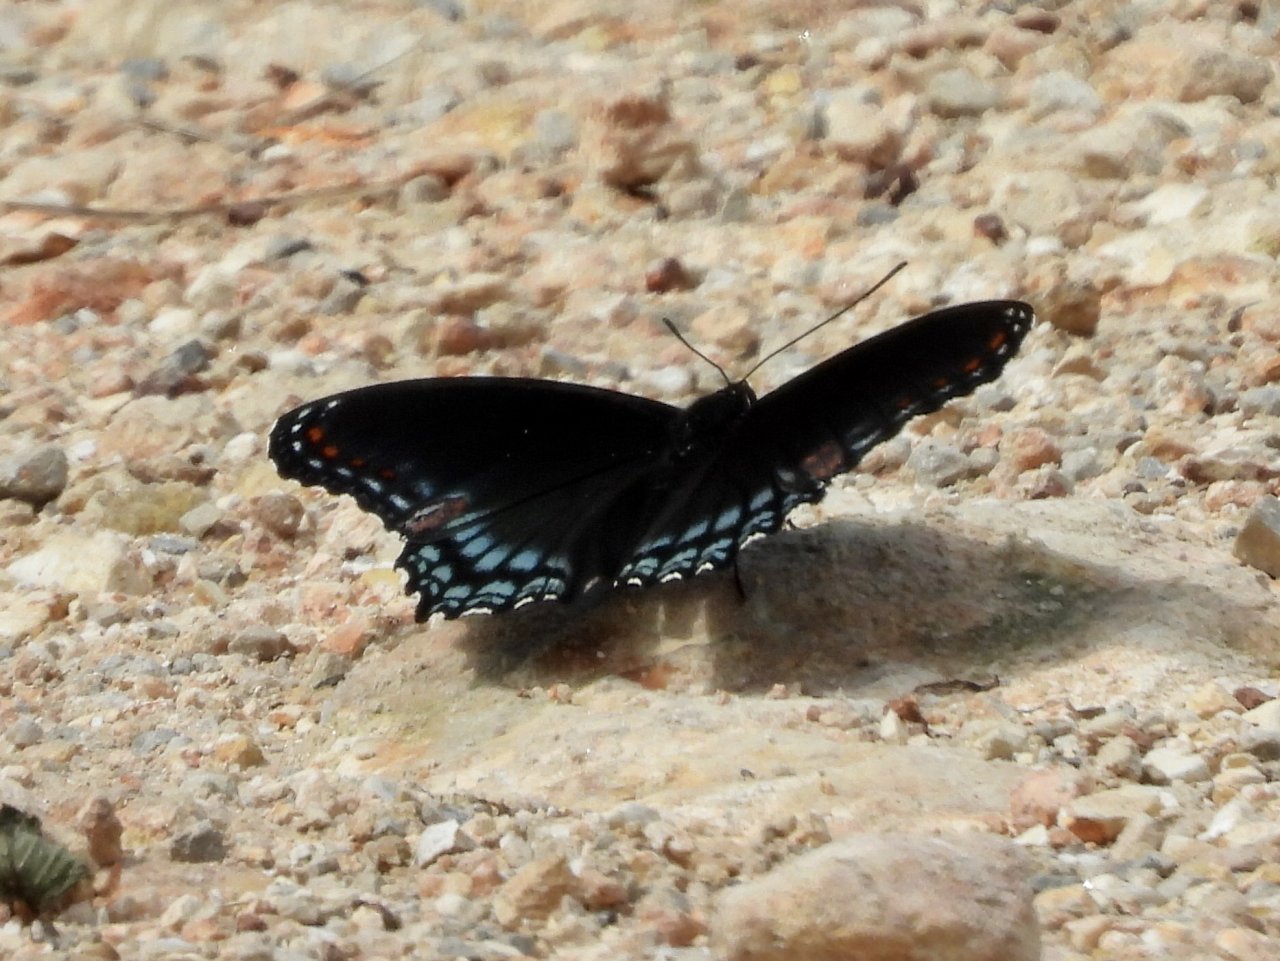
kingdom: Animalia
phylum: Arthropoda
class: Insecta
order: Lepidoptera
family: Nymphalidae
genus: Limenitis
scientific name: Limenitis arthemis
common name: Red-spotted Admiral
